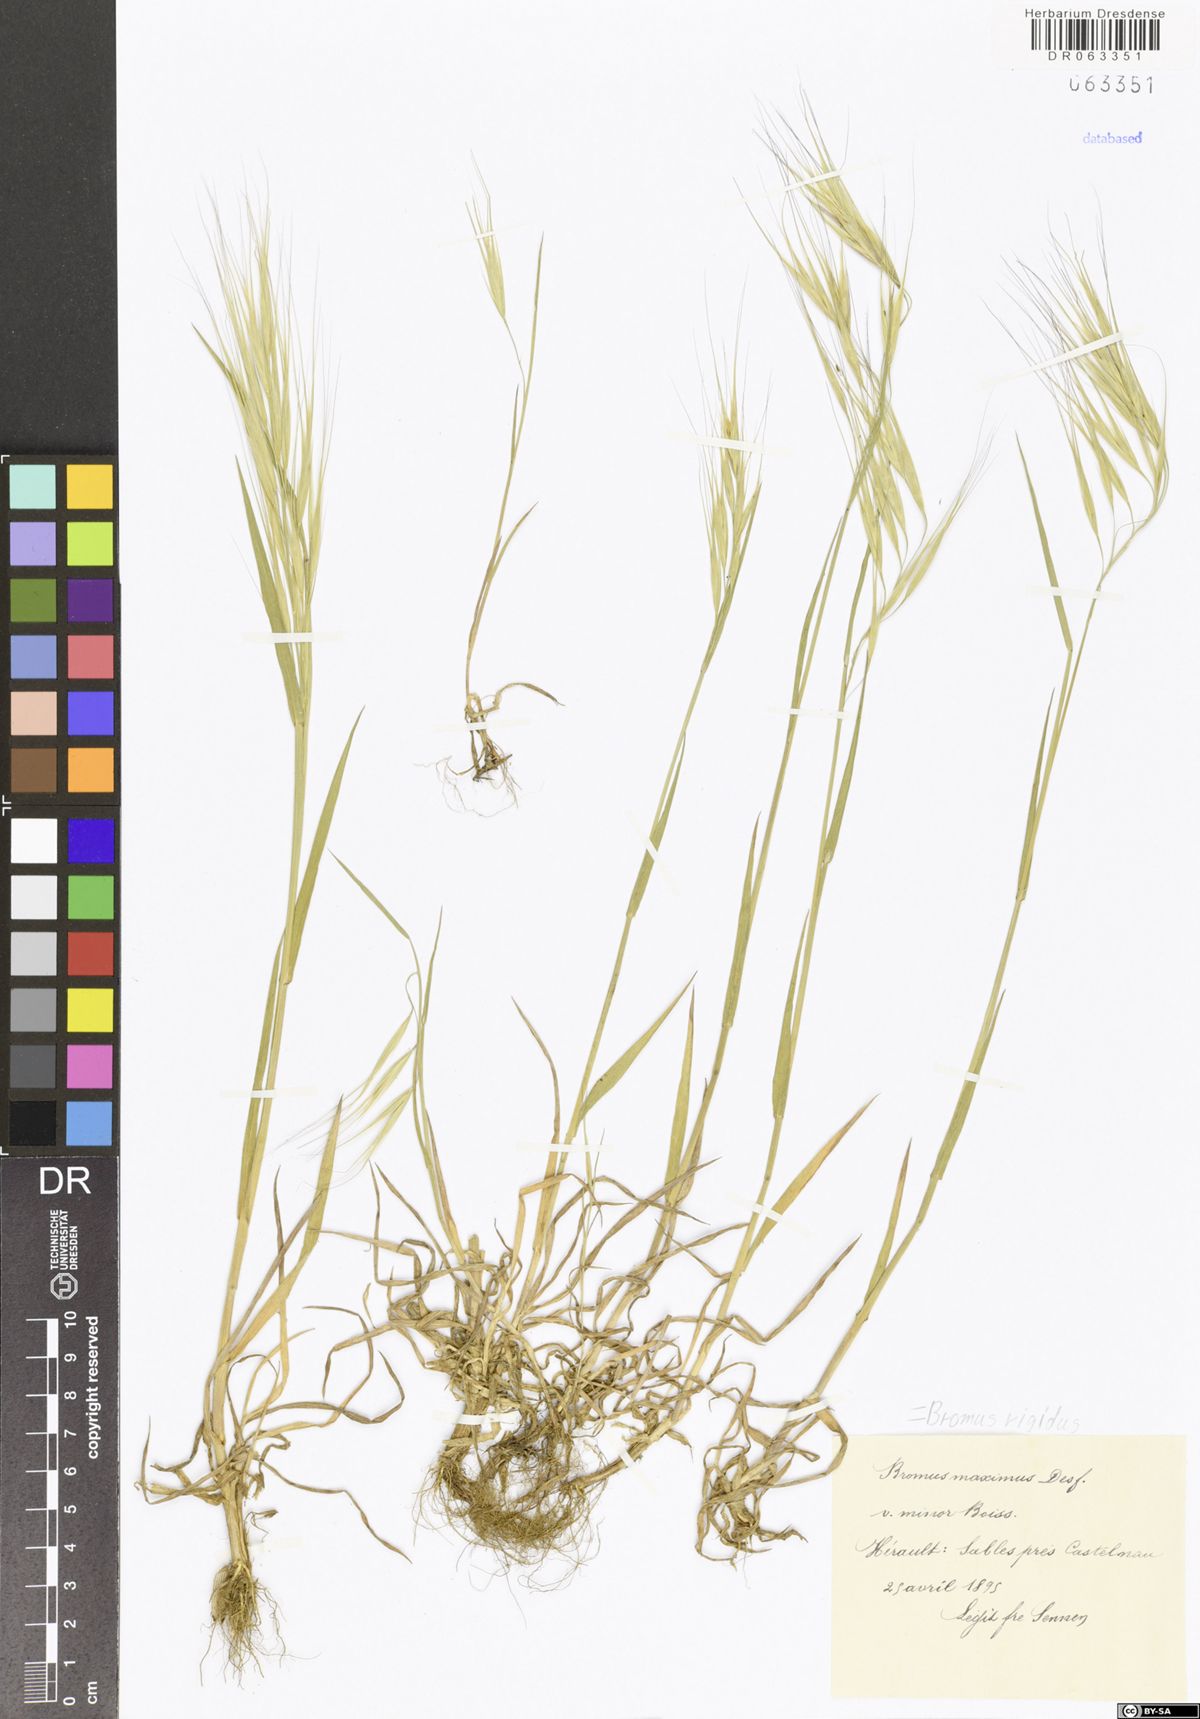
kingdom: Plantae
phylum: Tracheophyta
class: Liliopsida
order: Poales
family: Poaceae
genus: Bromus
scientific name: Bromus rigidus
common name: Ripgut brome
